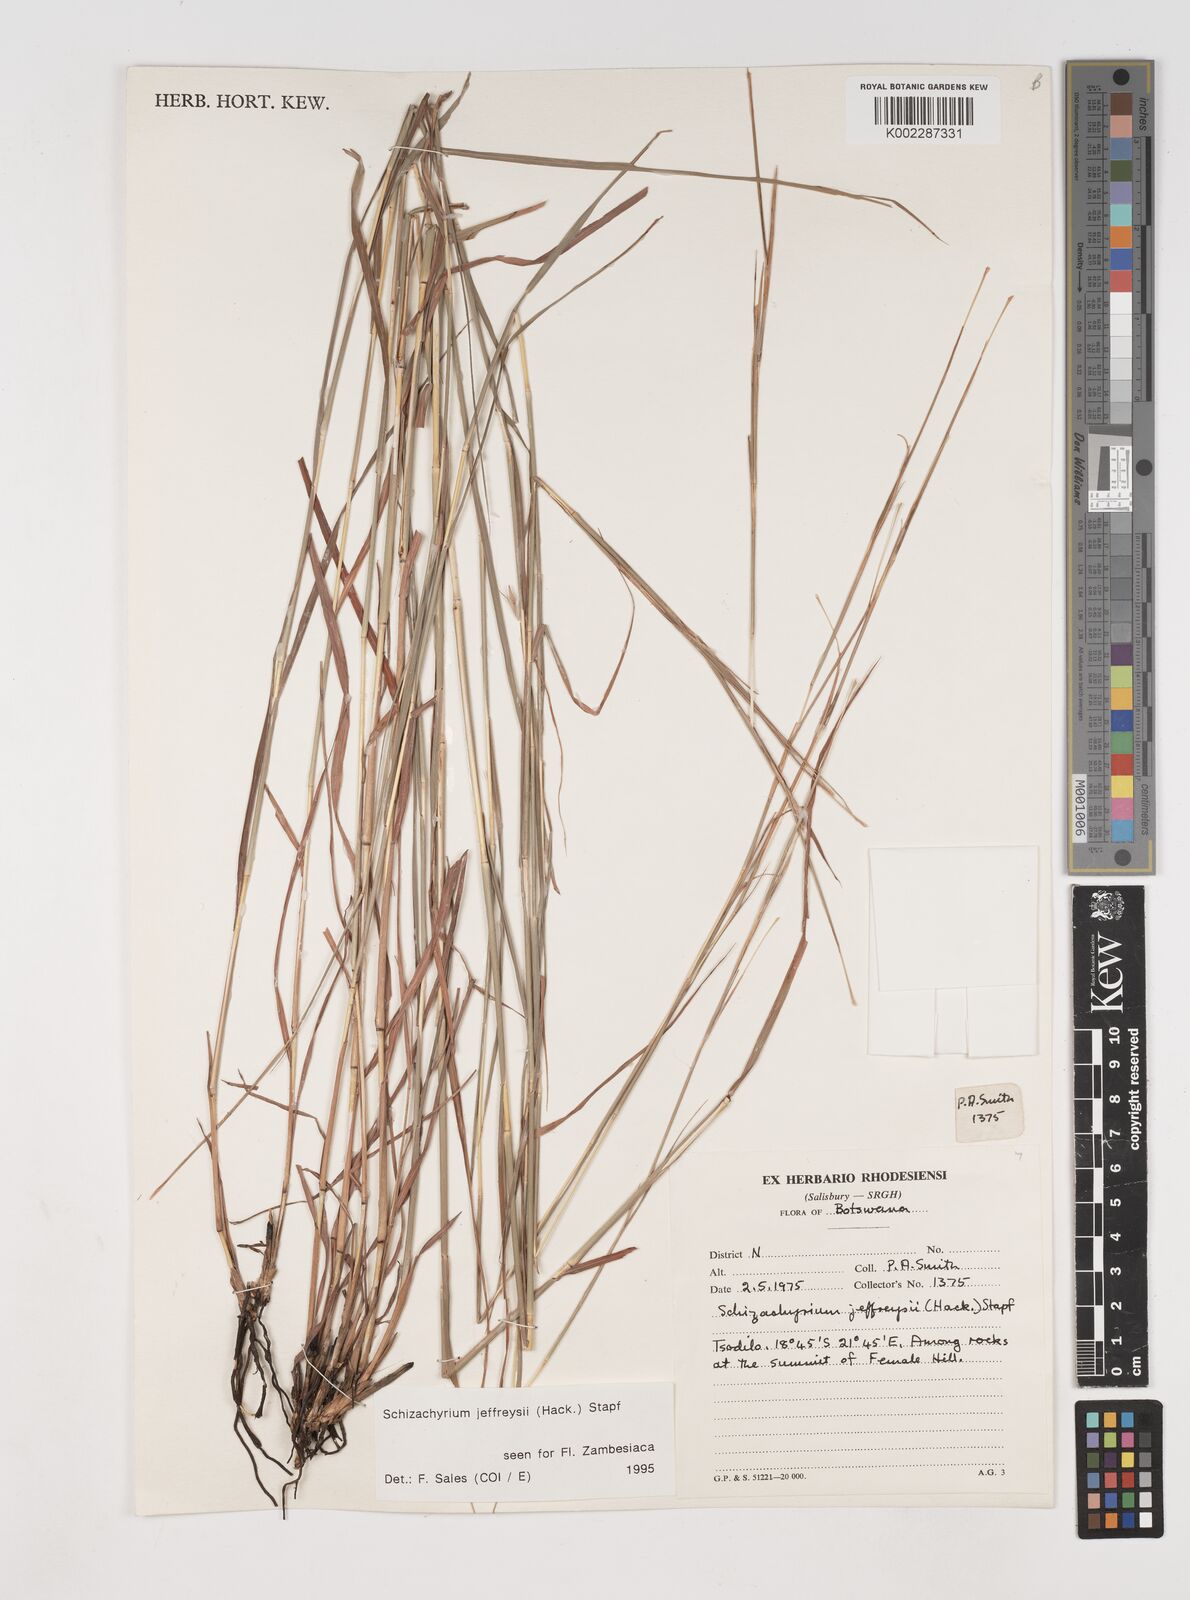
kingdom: Plantae
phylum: Tracheophyta
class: Liliopsida
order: Poales
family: Poaceae
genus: Schizachyrium
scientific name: Schizachyrium jeffreysii
